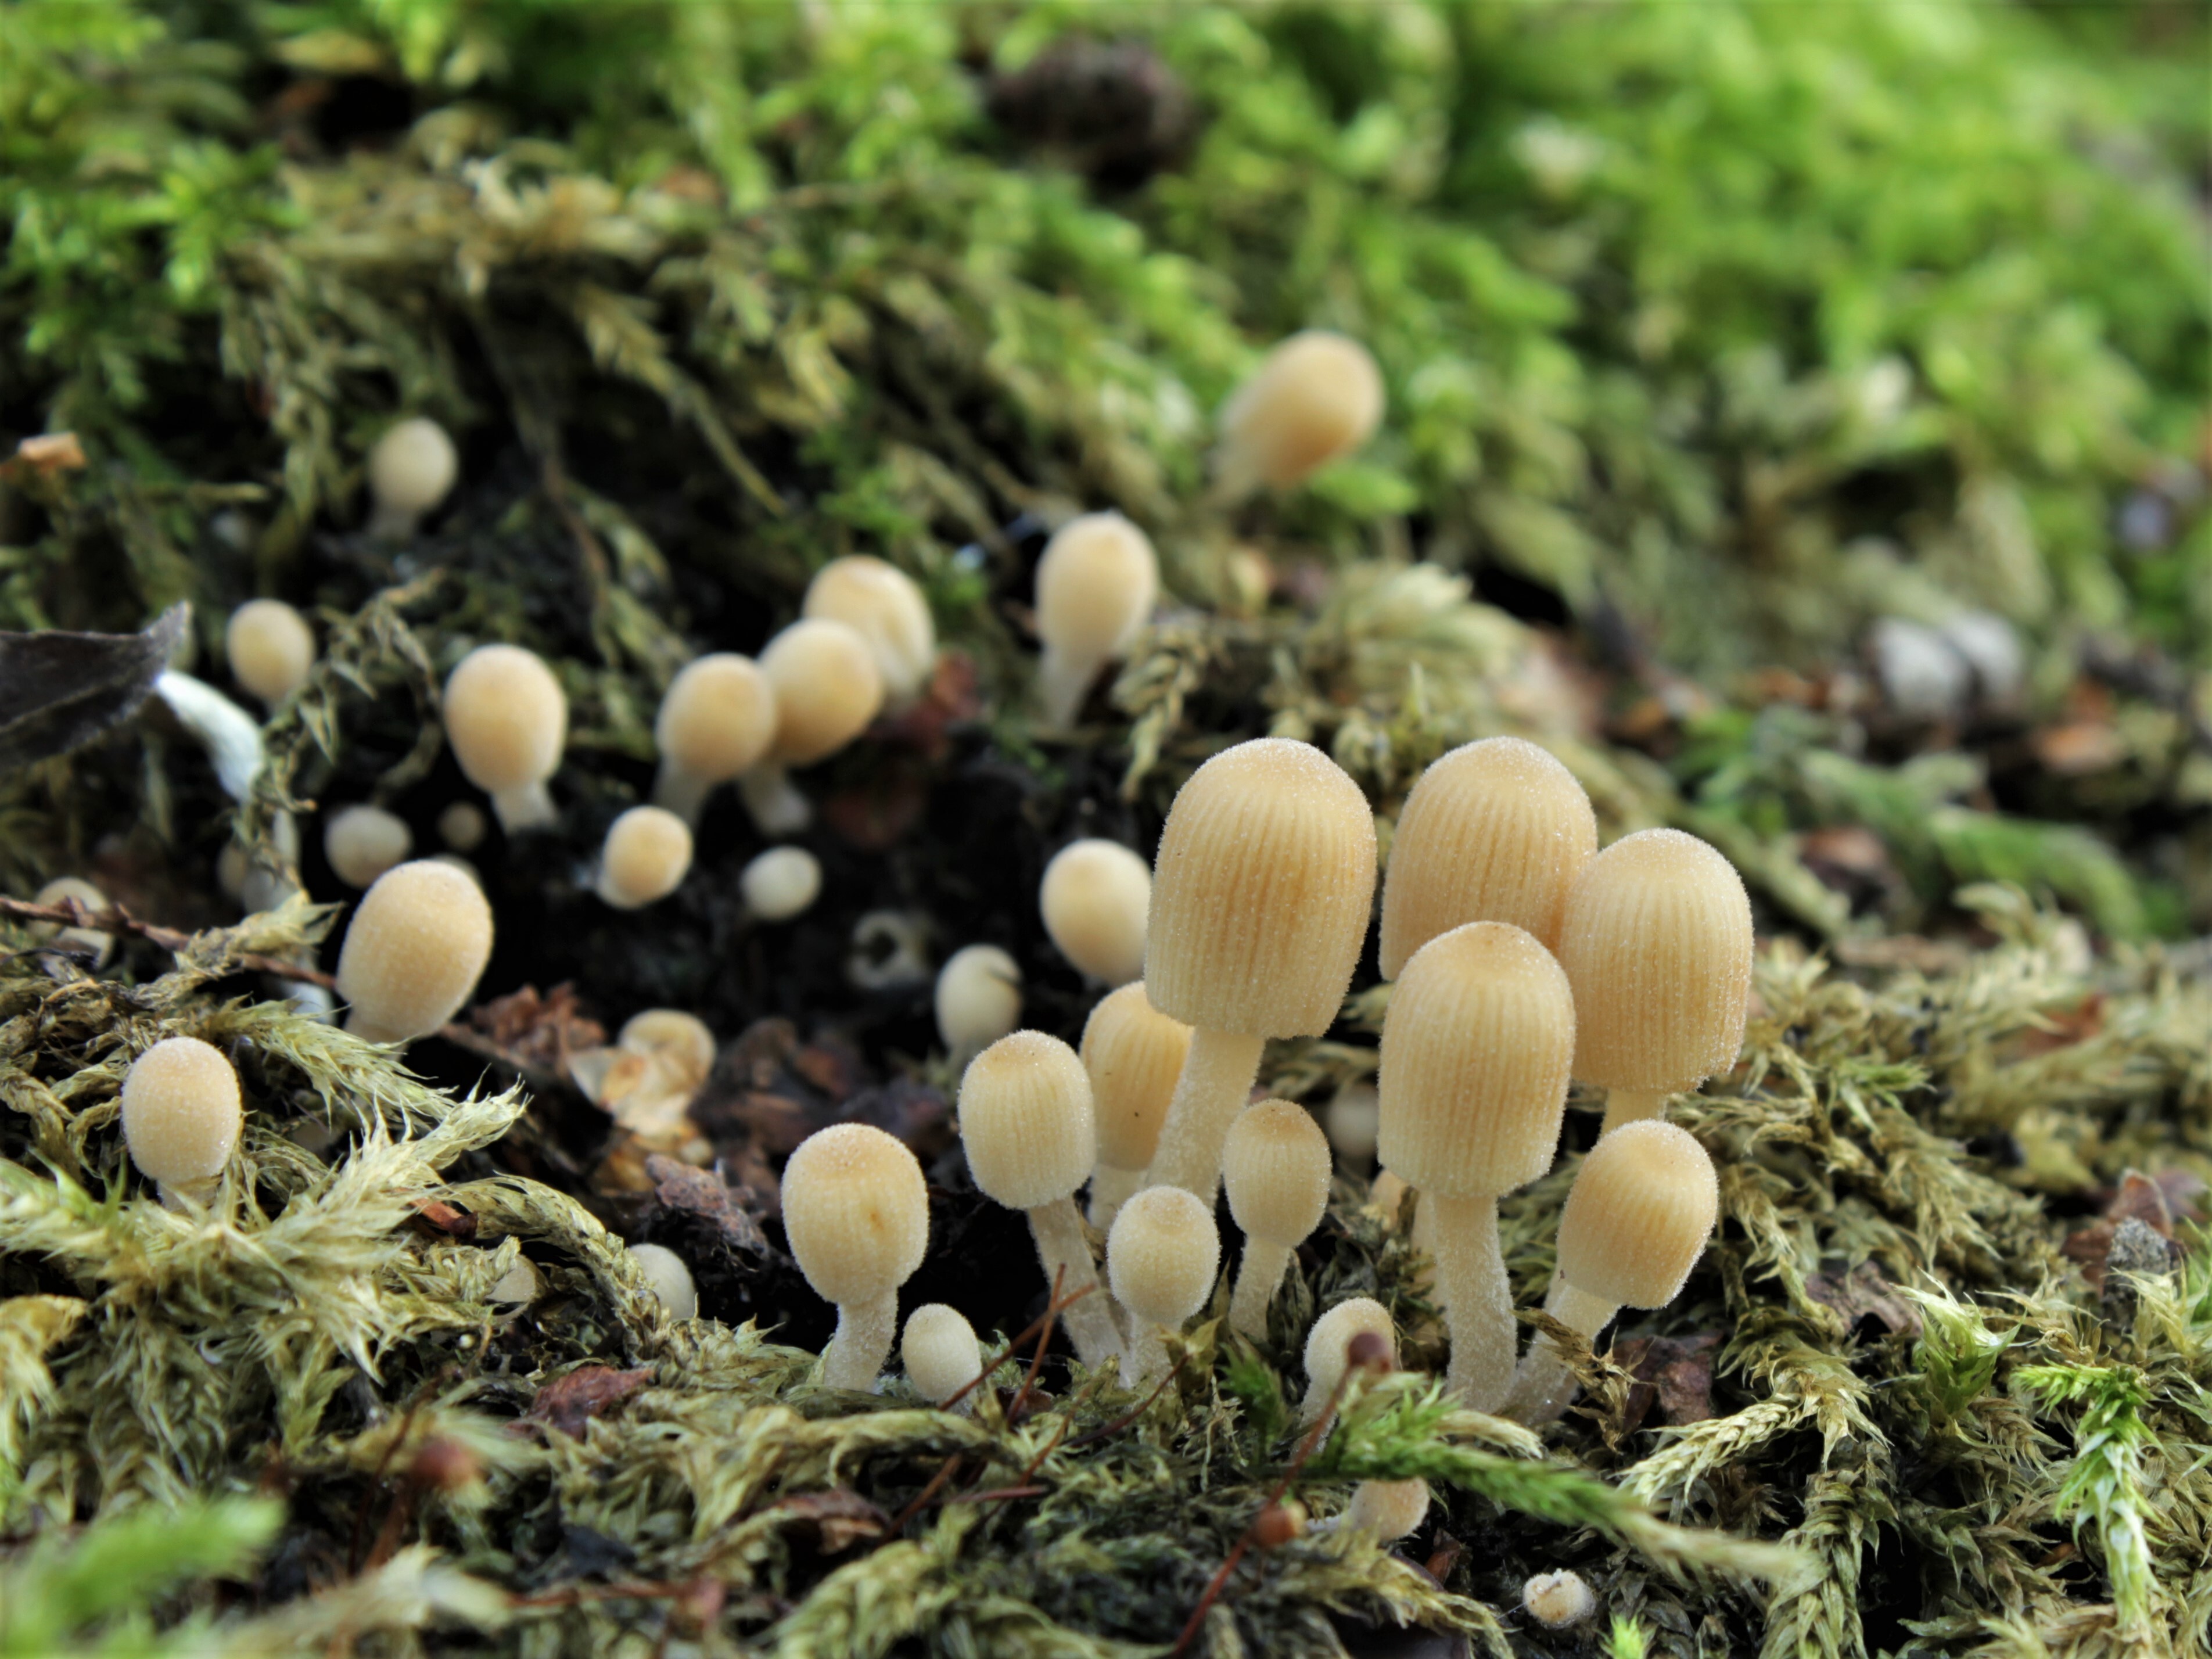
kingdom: Fungi
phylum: Basidiomycota
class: Agaricomycetes
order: Agaricales
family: Psathyrellaceae
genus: Coprinellus
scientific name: Coprinellus disseminatus
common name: Fairies' bonnets
